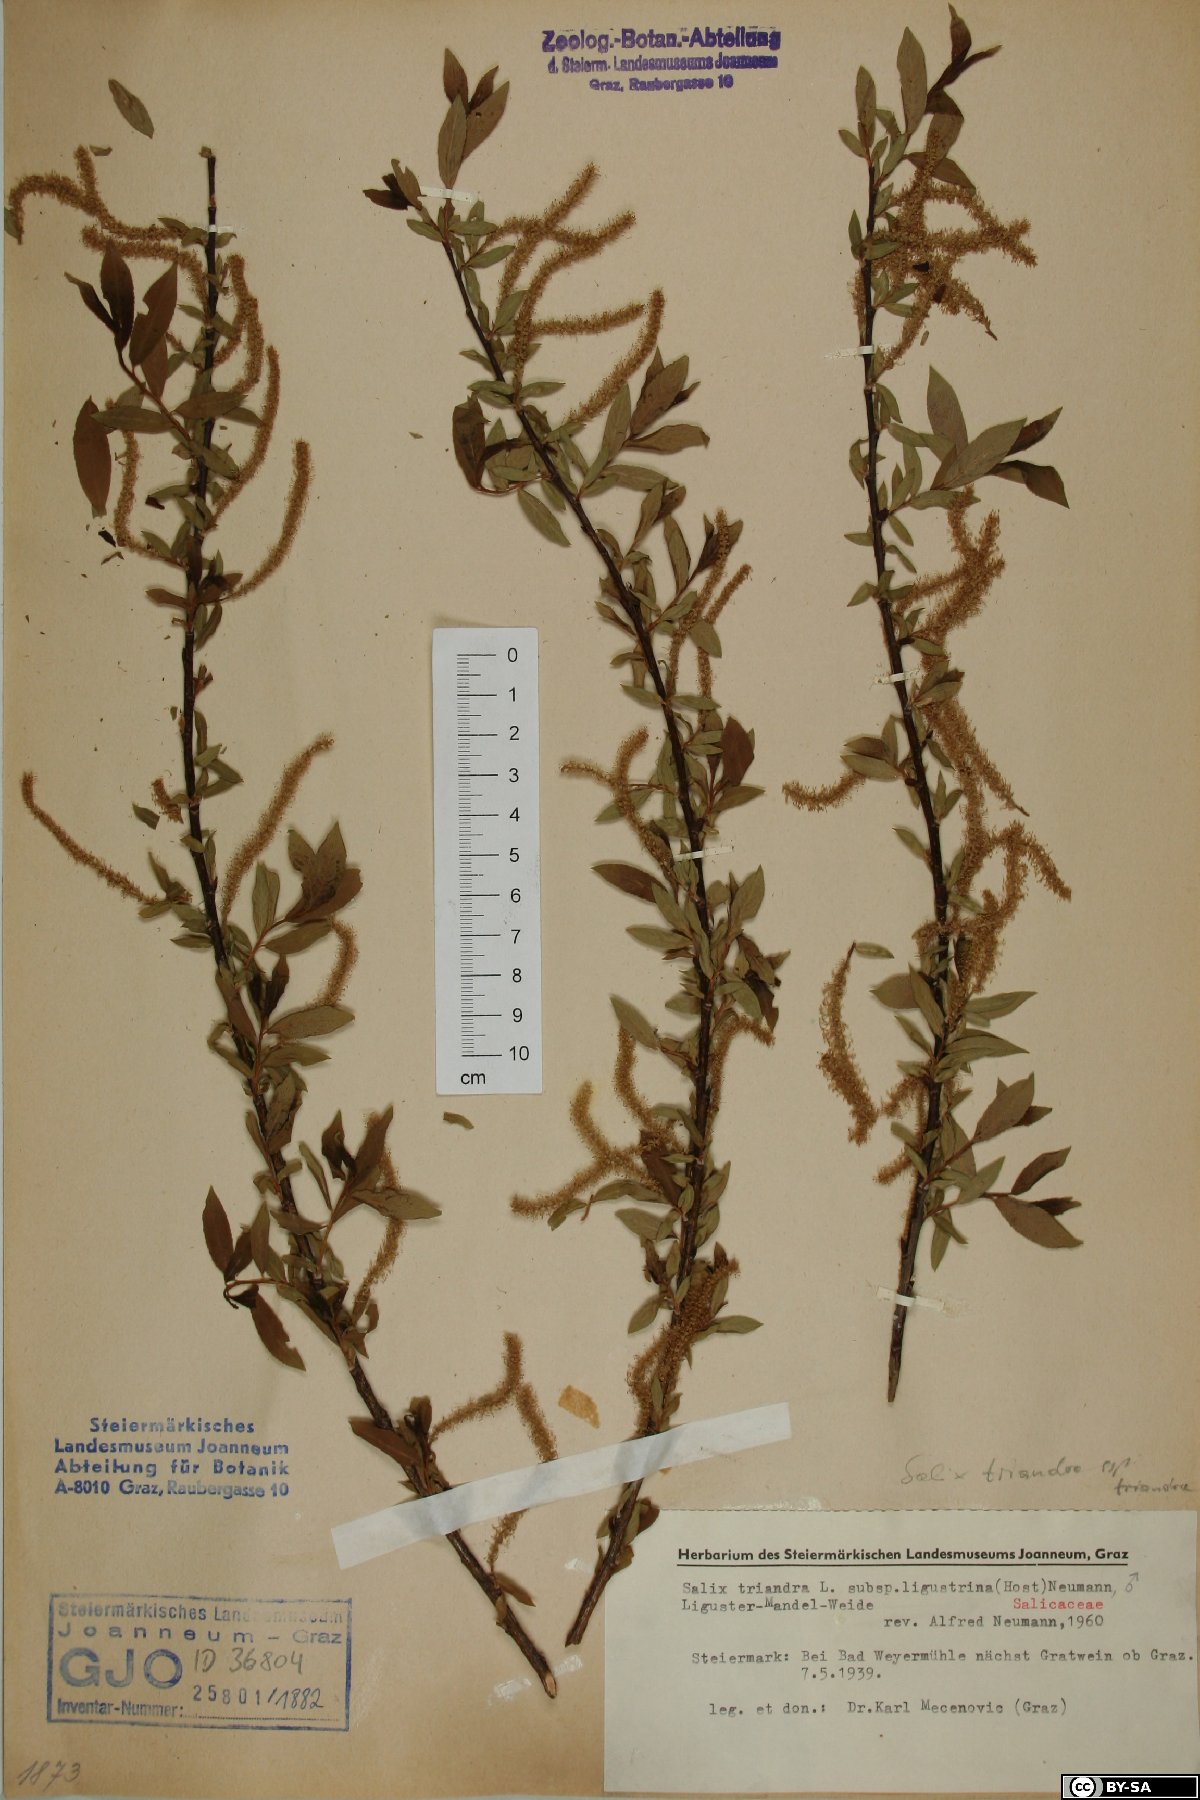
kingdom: Plantae
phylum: Tracheophyta
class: Magnoliopsida
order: Malpighiales
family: Salicaceae
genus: Salix
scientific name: Salix triandra
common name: Almond willow
